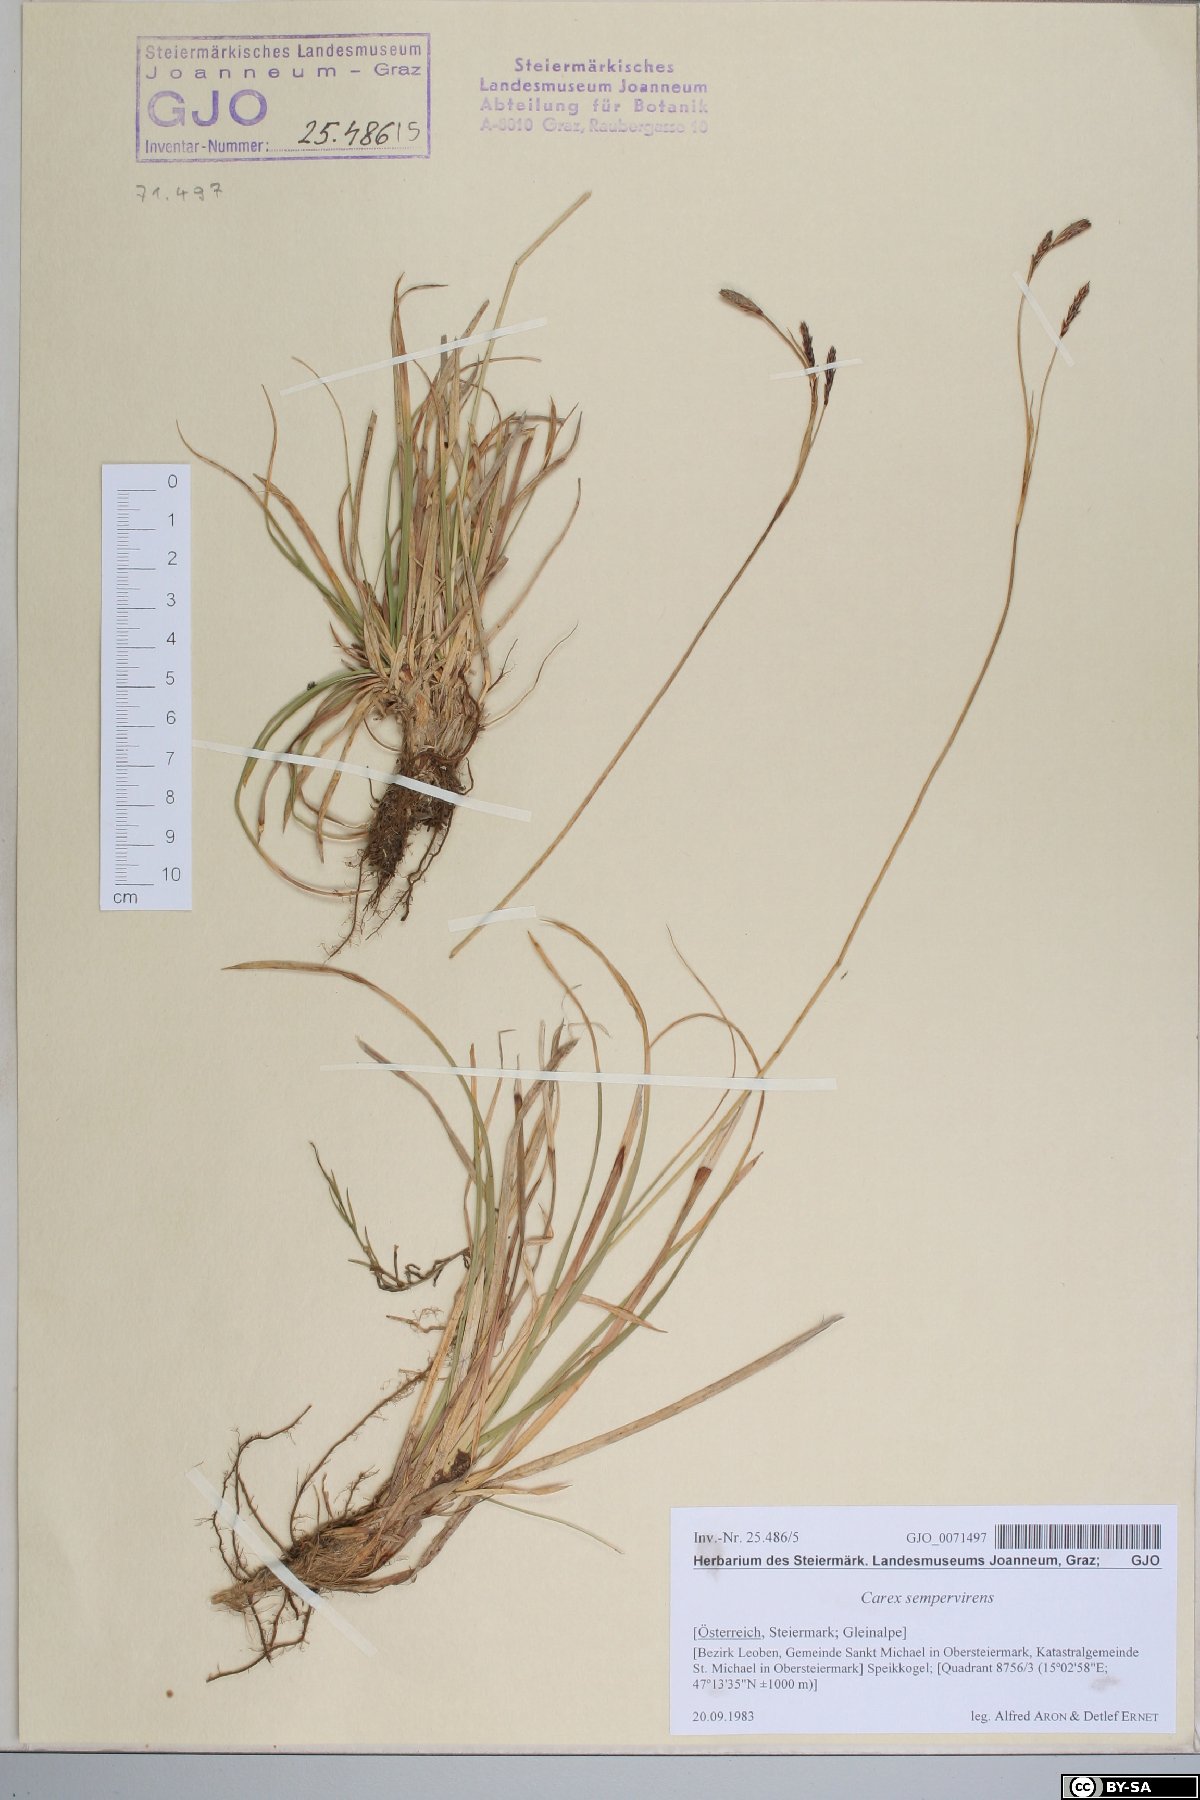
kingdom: Plantae
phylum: Tracheophyta
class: Liliopsida
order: Poales
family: Cyperaceae
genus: Carex
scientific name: Carex sempervirens
